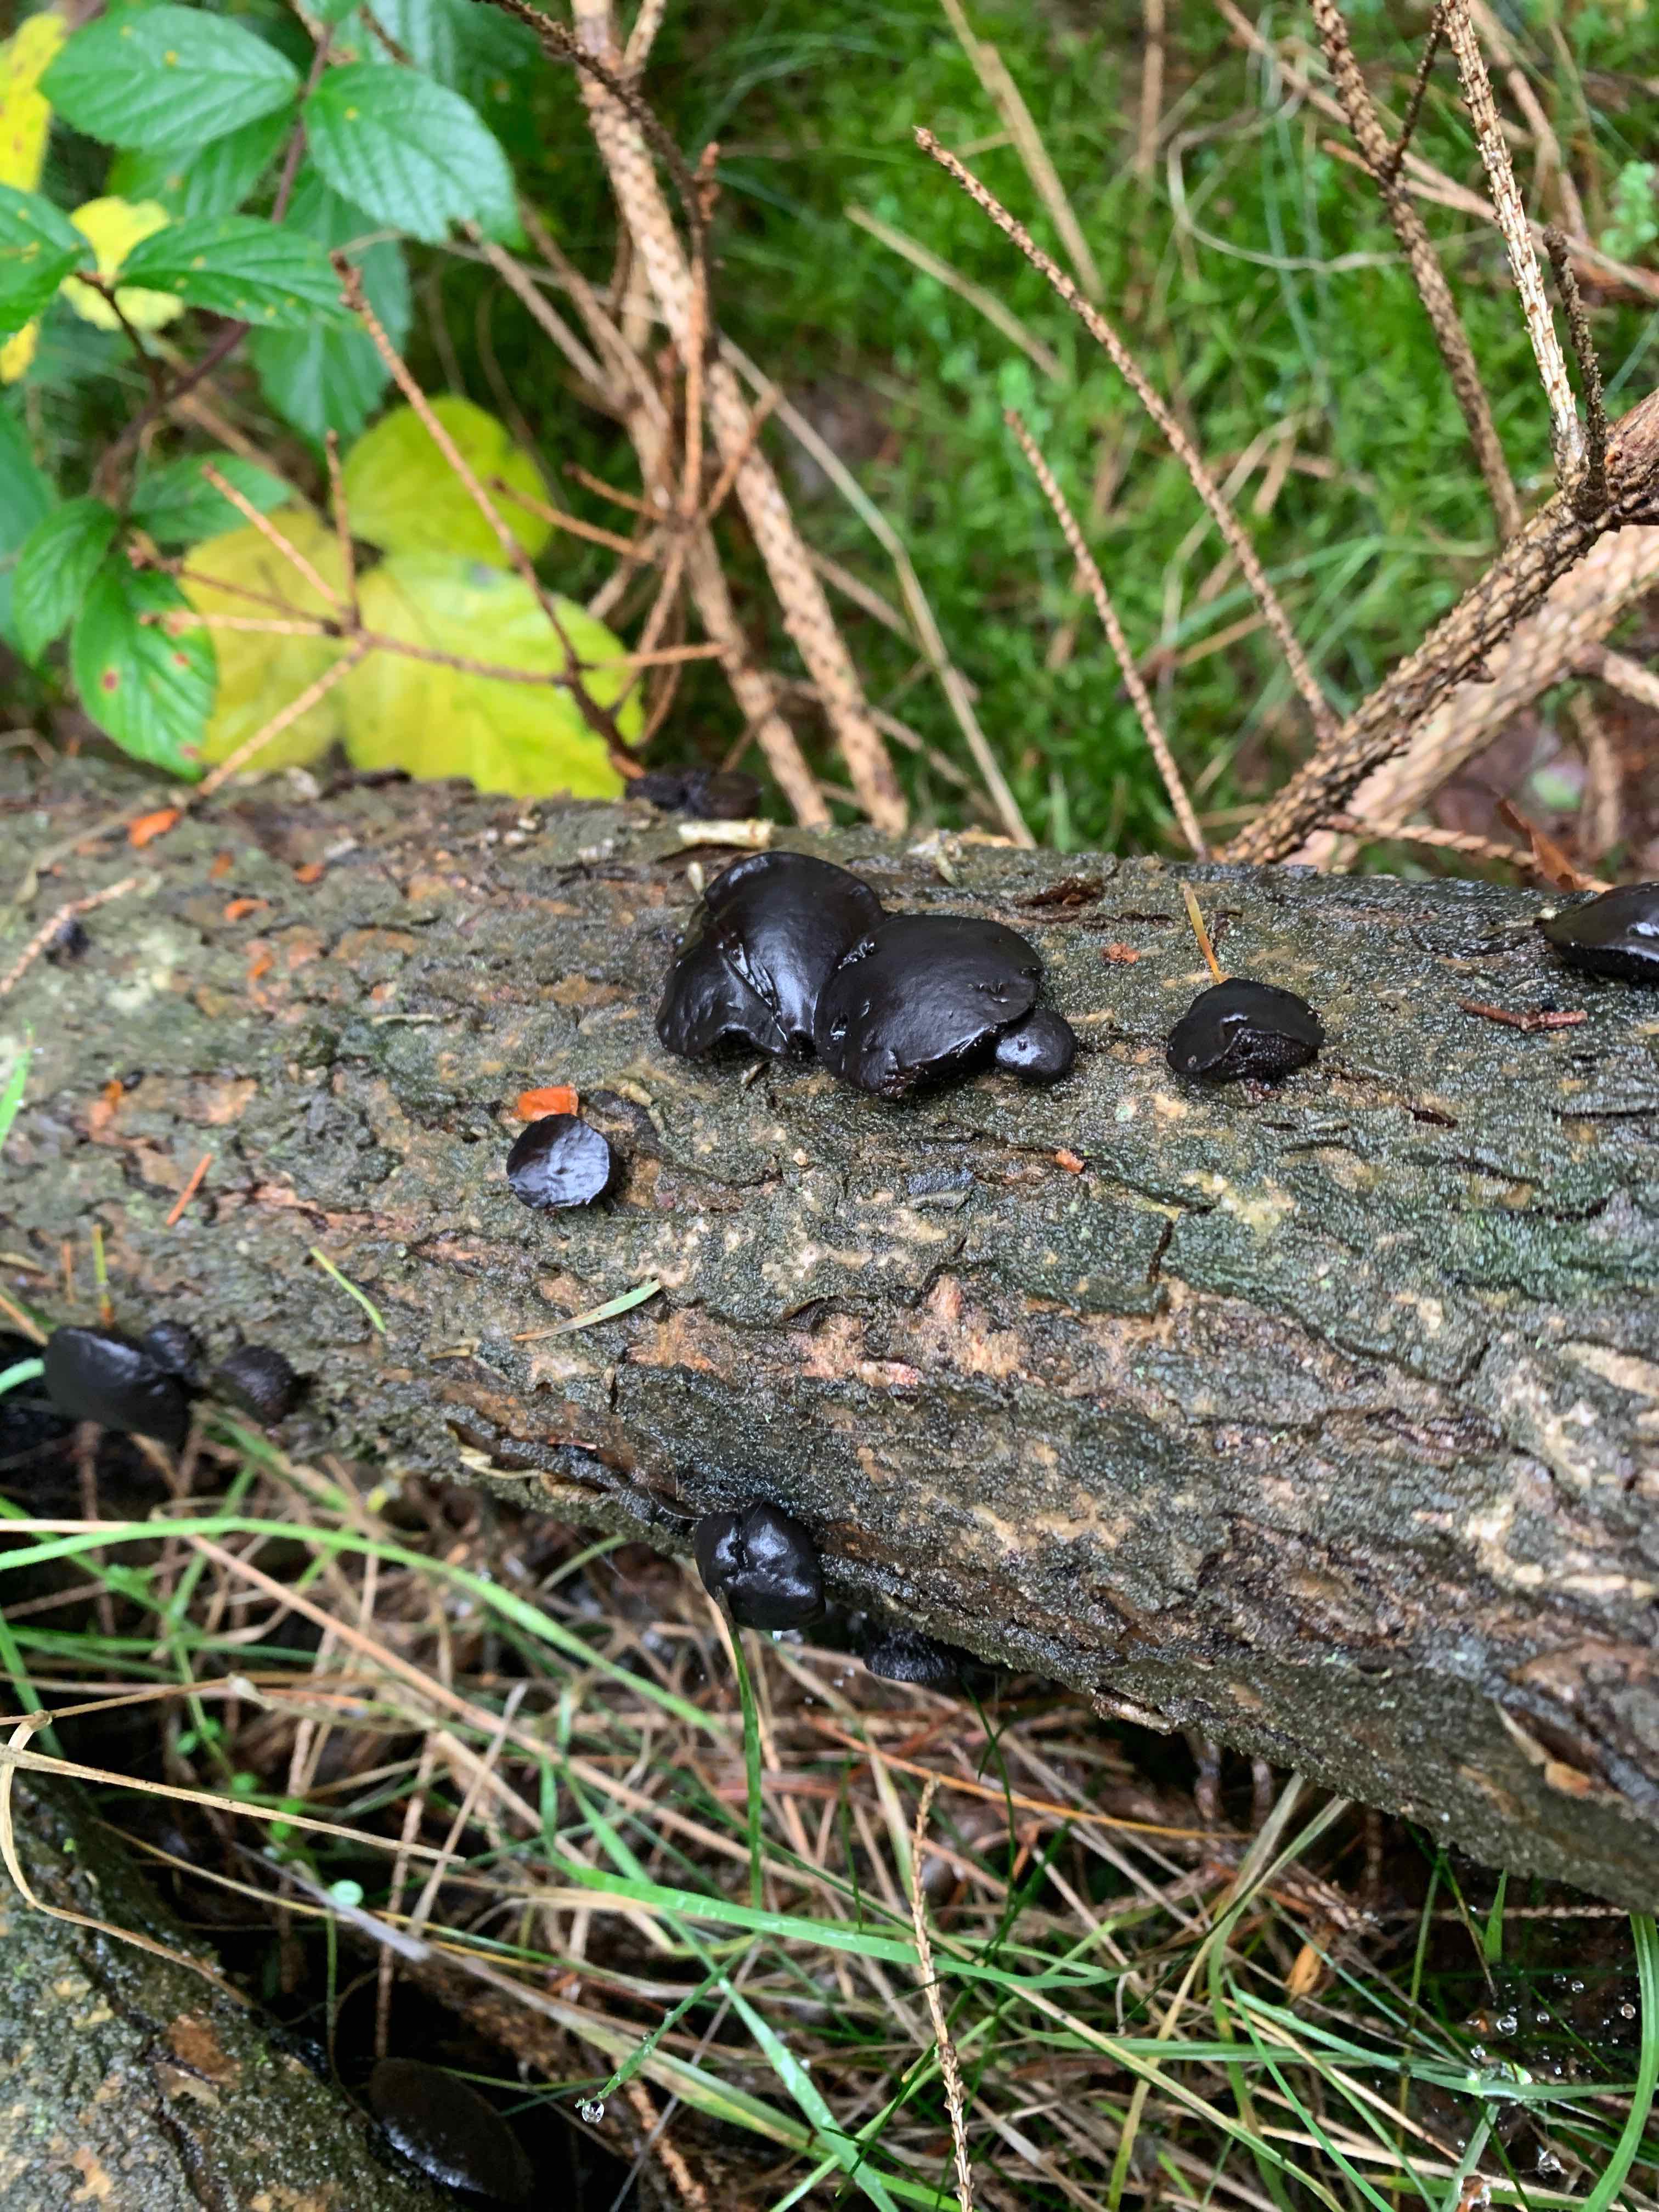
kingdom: Fungi
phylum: Ascomycota
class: Leotiomycetes
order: Phacidiales
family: Phacidiaceae
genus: Bulgaria
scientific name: Bulgaria inquinans
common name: afsmittende topsvamp
